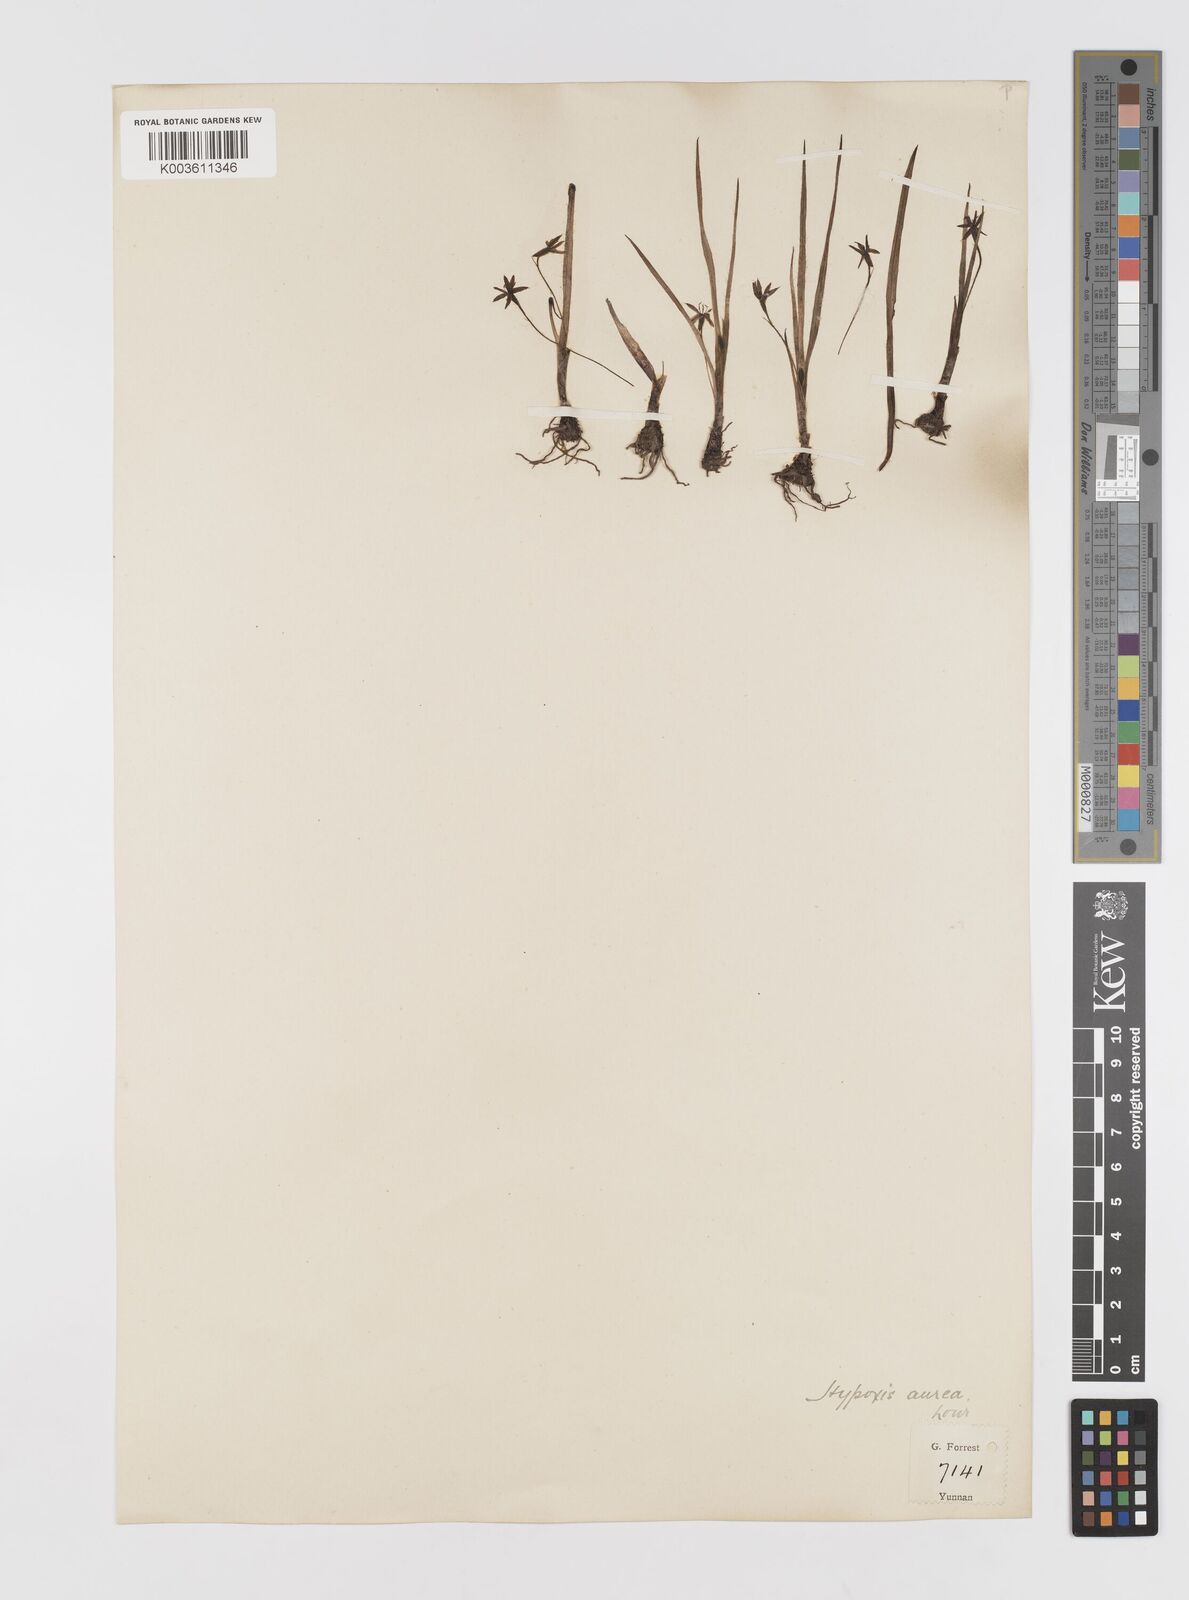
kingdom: Plantae
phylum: Tracheophyta
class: Liliopsida
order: Asparagales
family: Hypoxidaceae
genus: Hypoxis
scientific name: Hypoxis aurea
